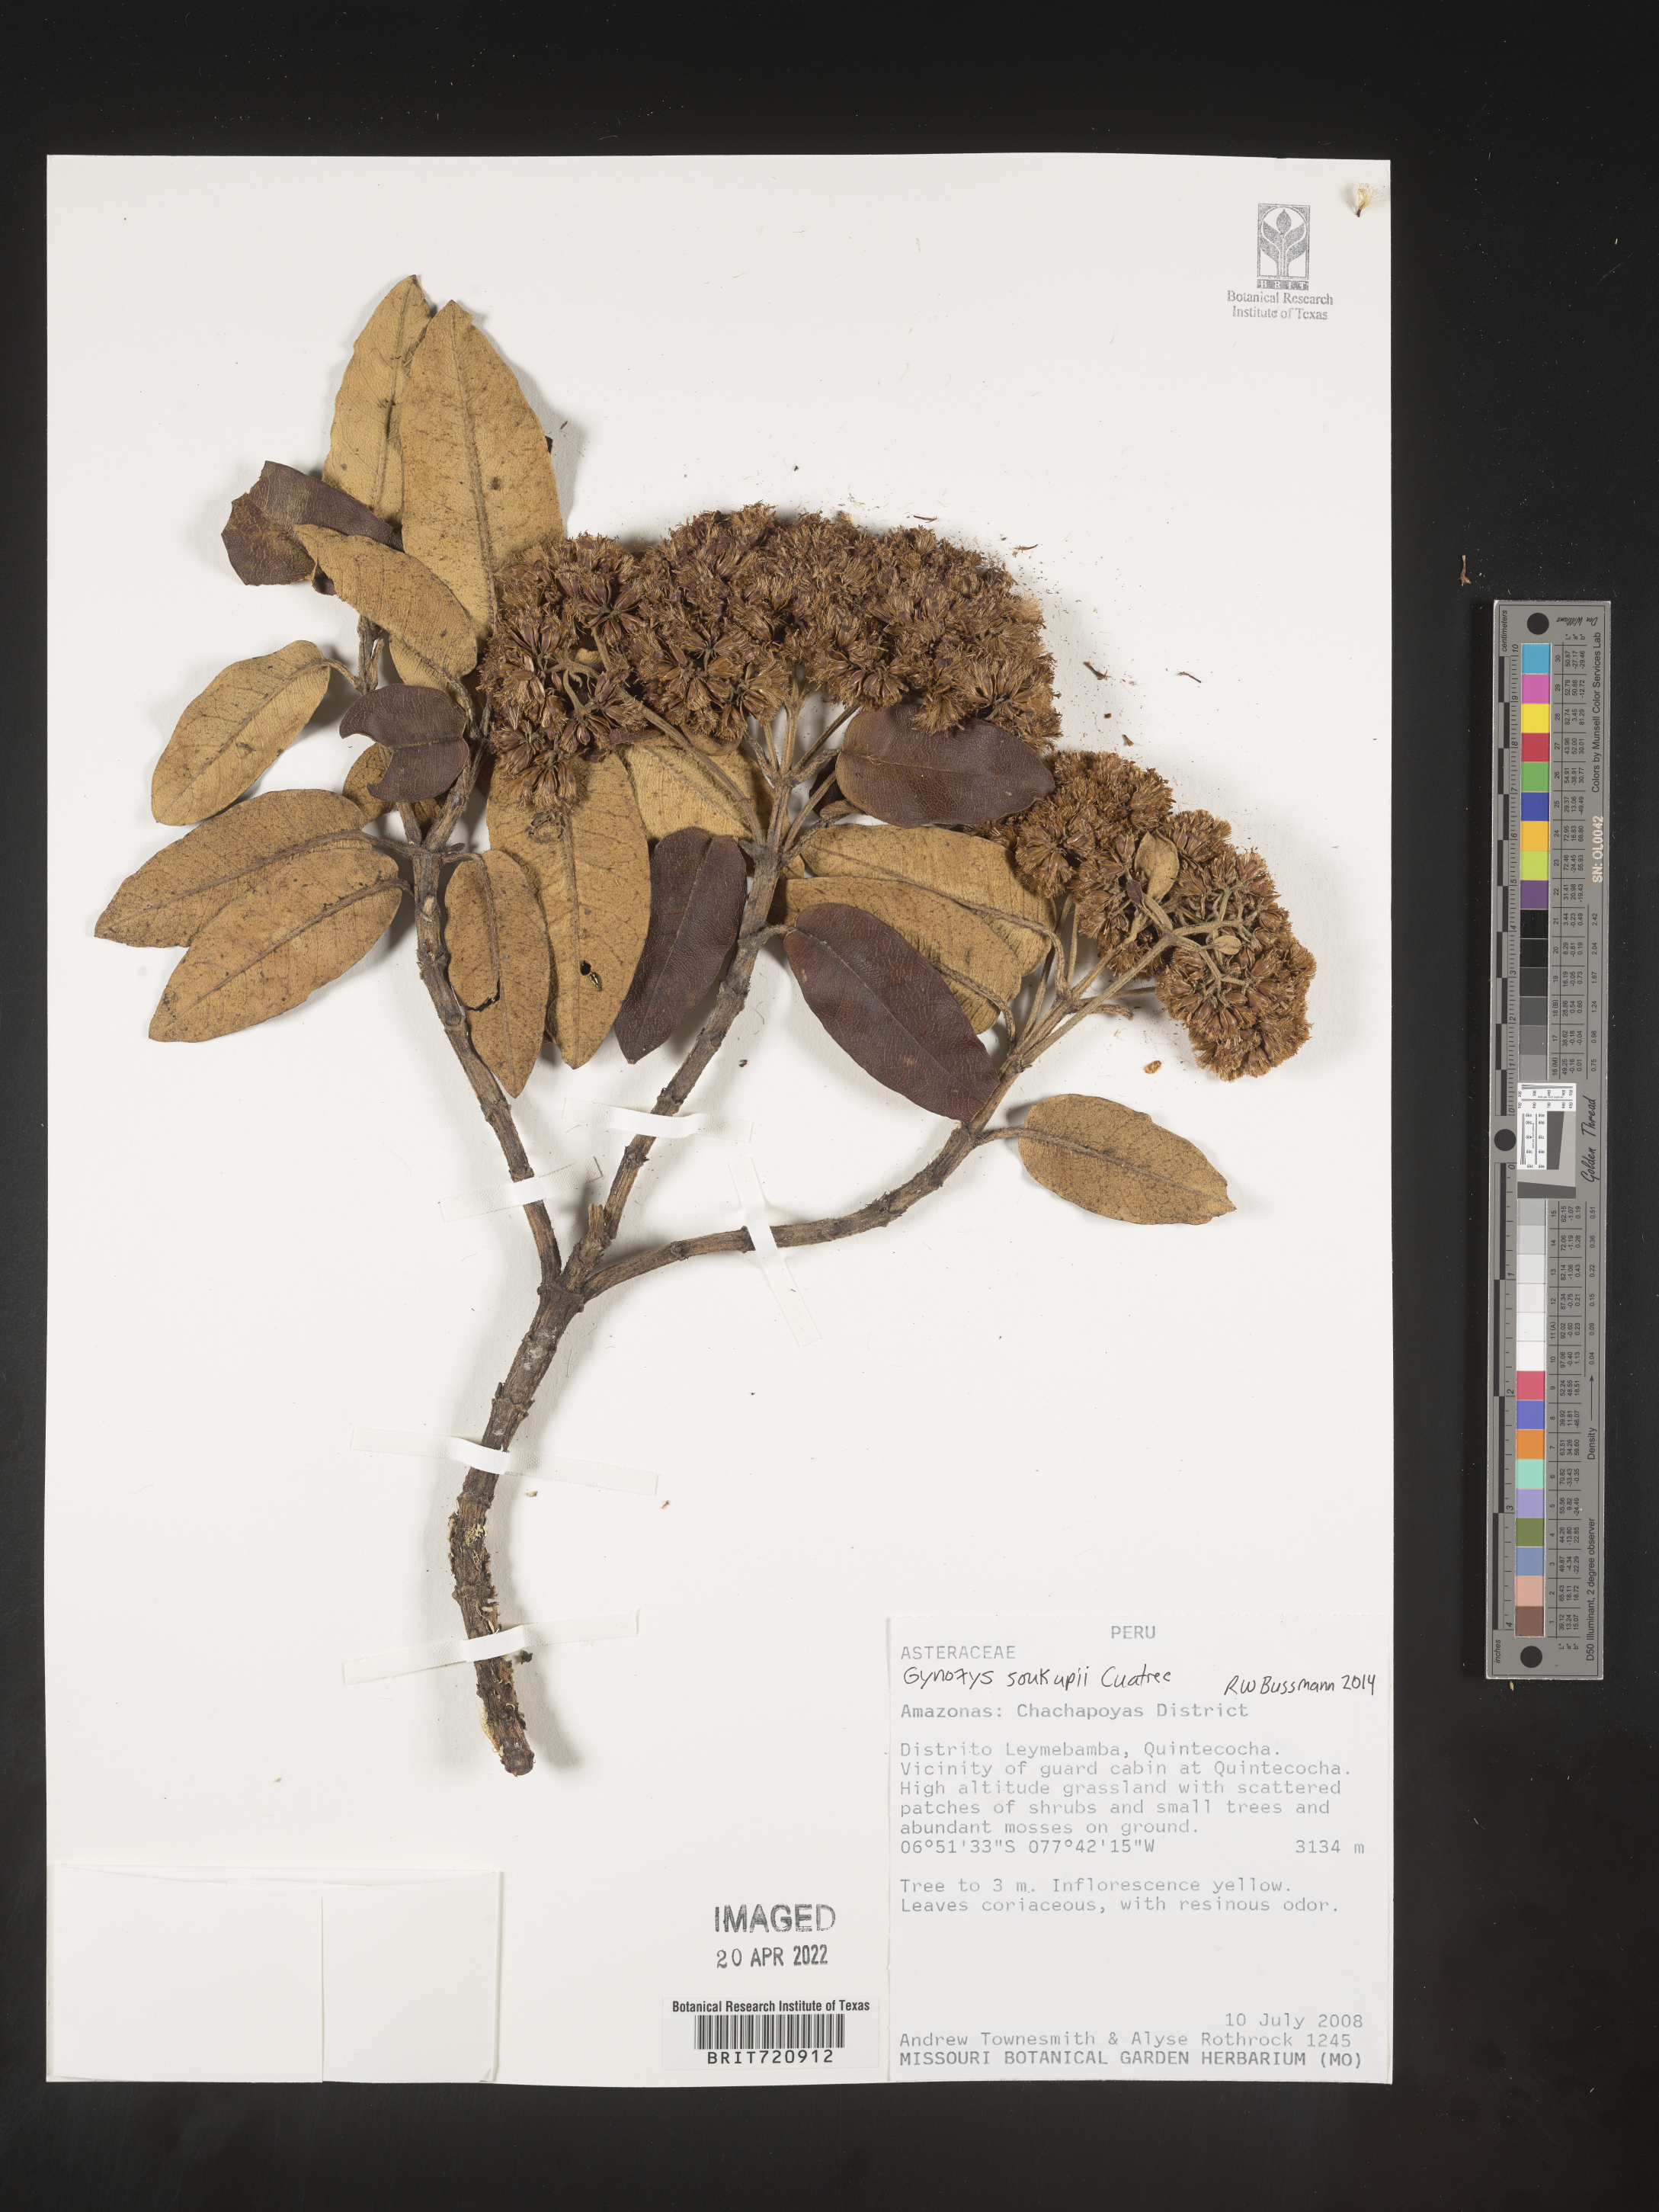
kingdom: Plantae
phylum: Tracheophyta
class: Magnoliopsida
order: Asterales
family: Asteraceae
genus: Gynoxys
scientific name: Gynoxys
